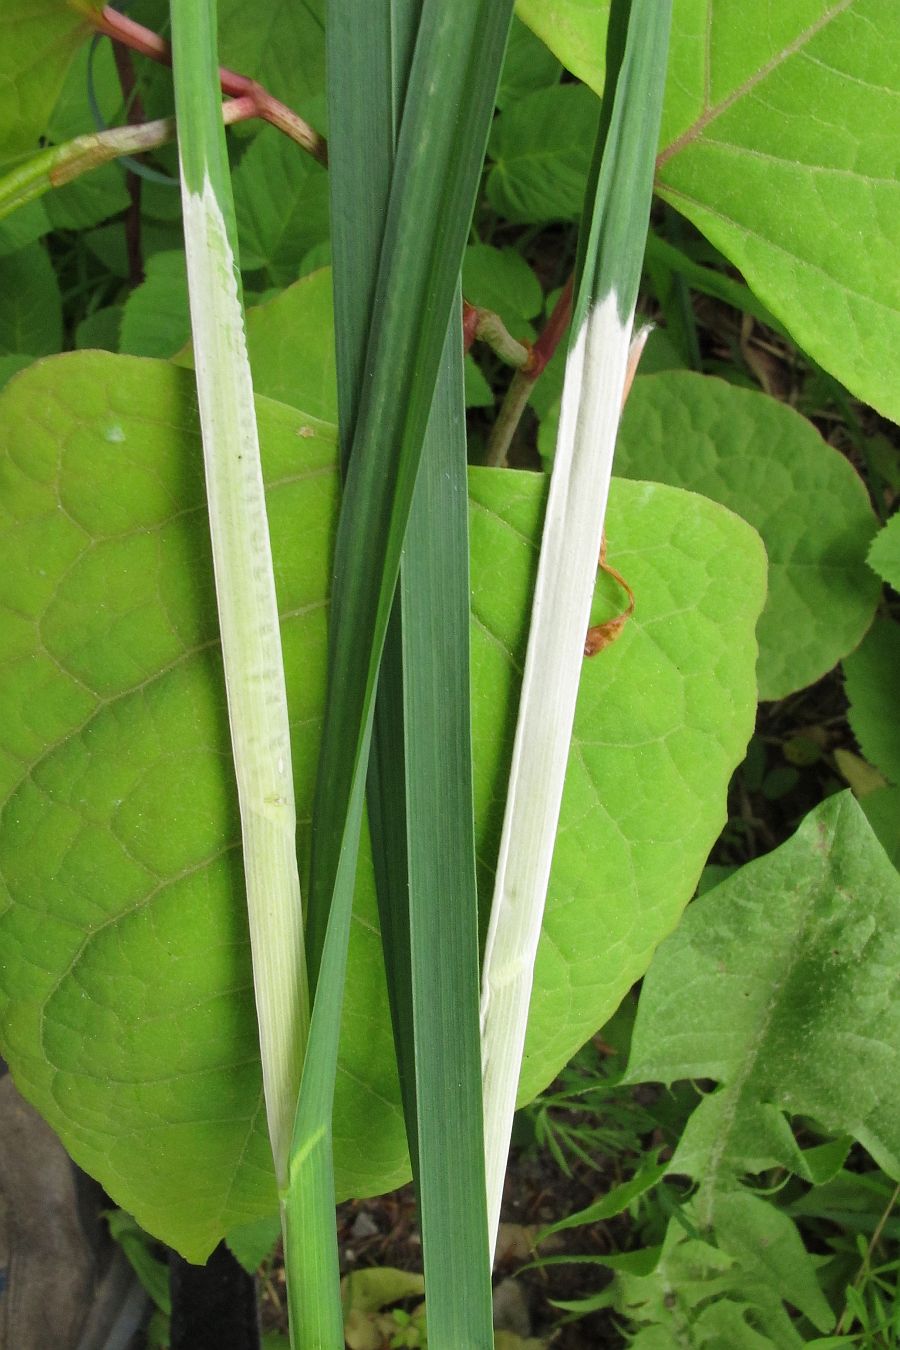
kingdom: Fungi
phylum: Ascomycota
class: Sordariomycetes
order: Hypocreales
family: Clavicipitaceae
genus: Epichloe
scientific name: Epichloe typhina
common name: almindelig kernerør
